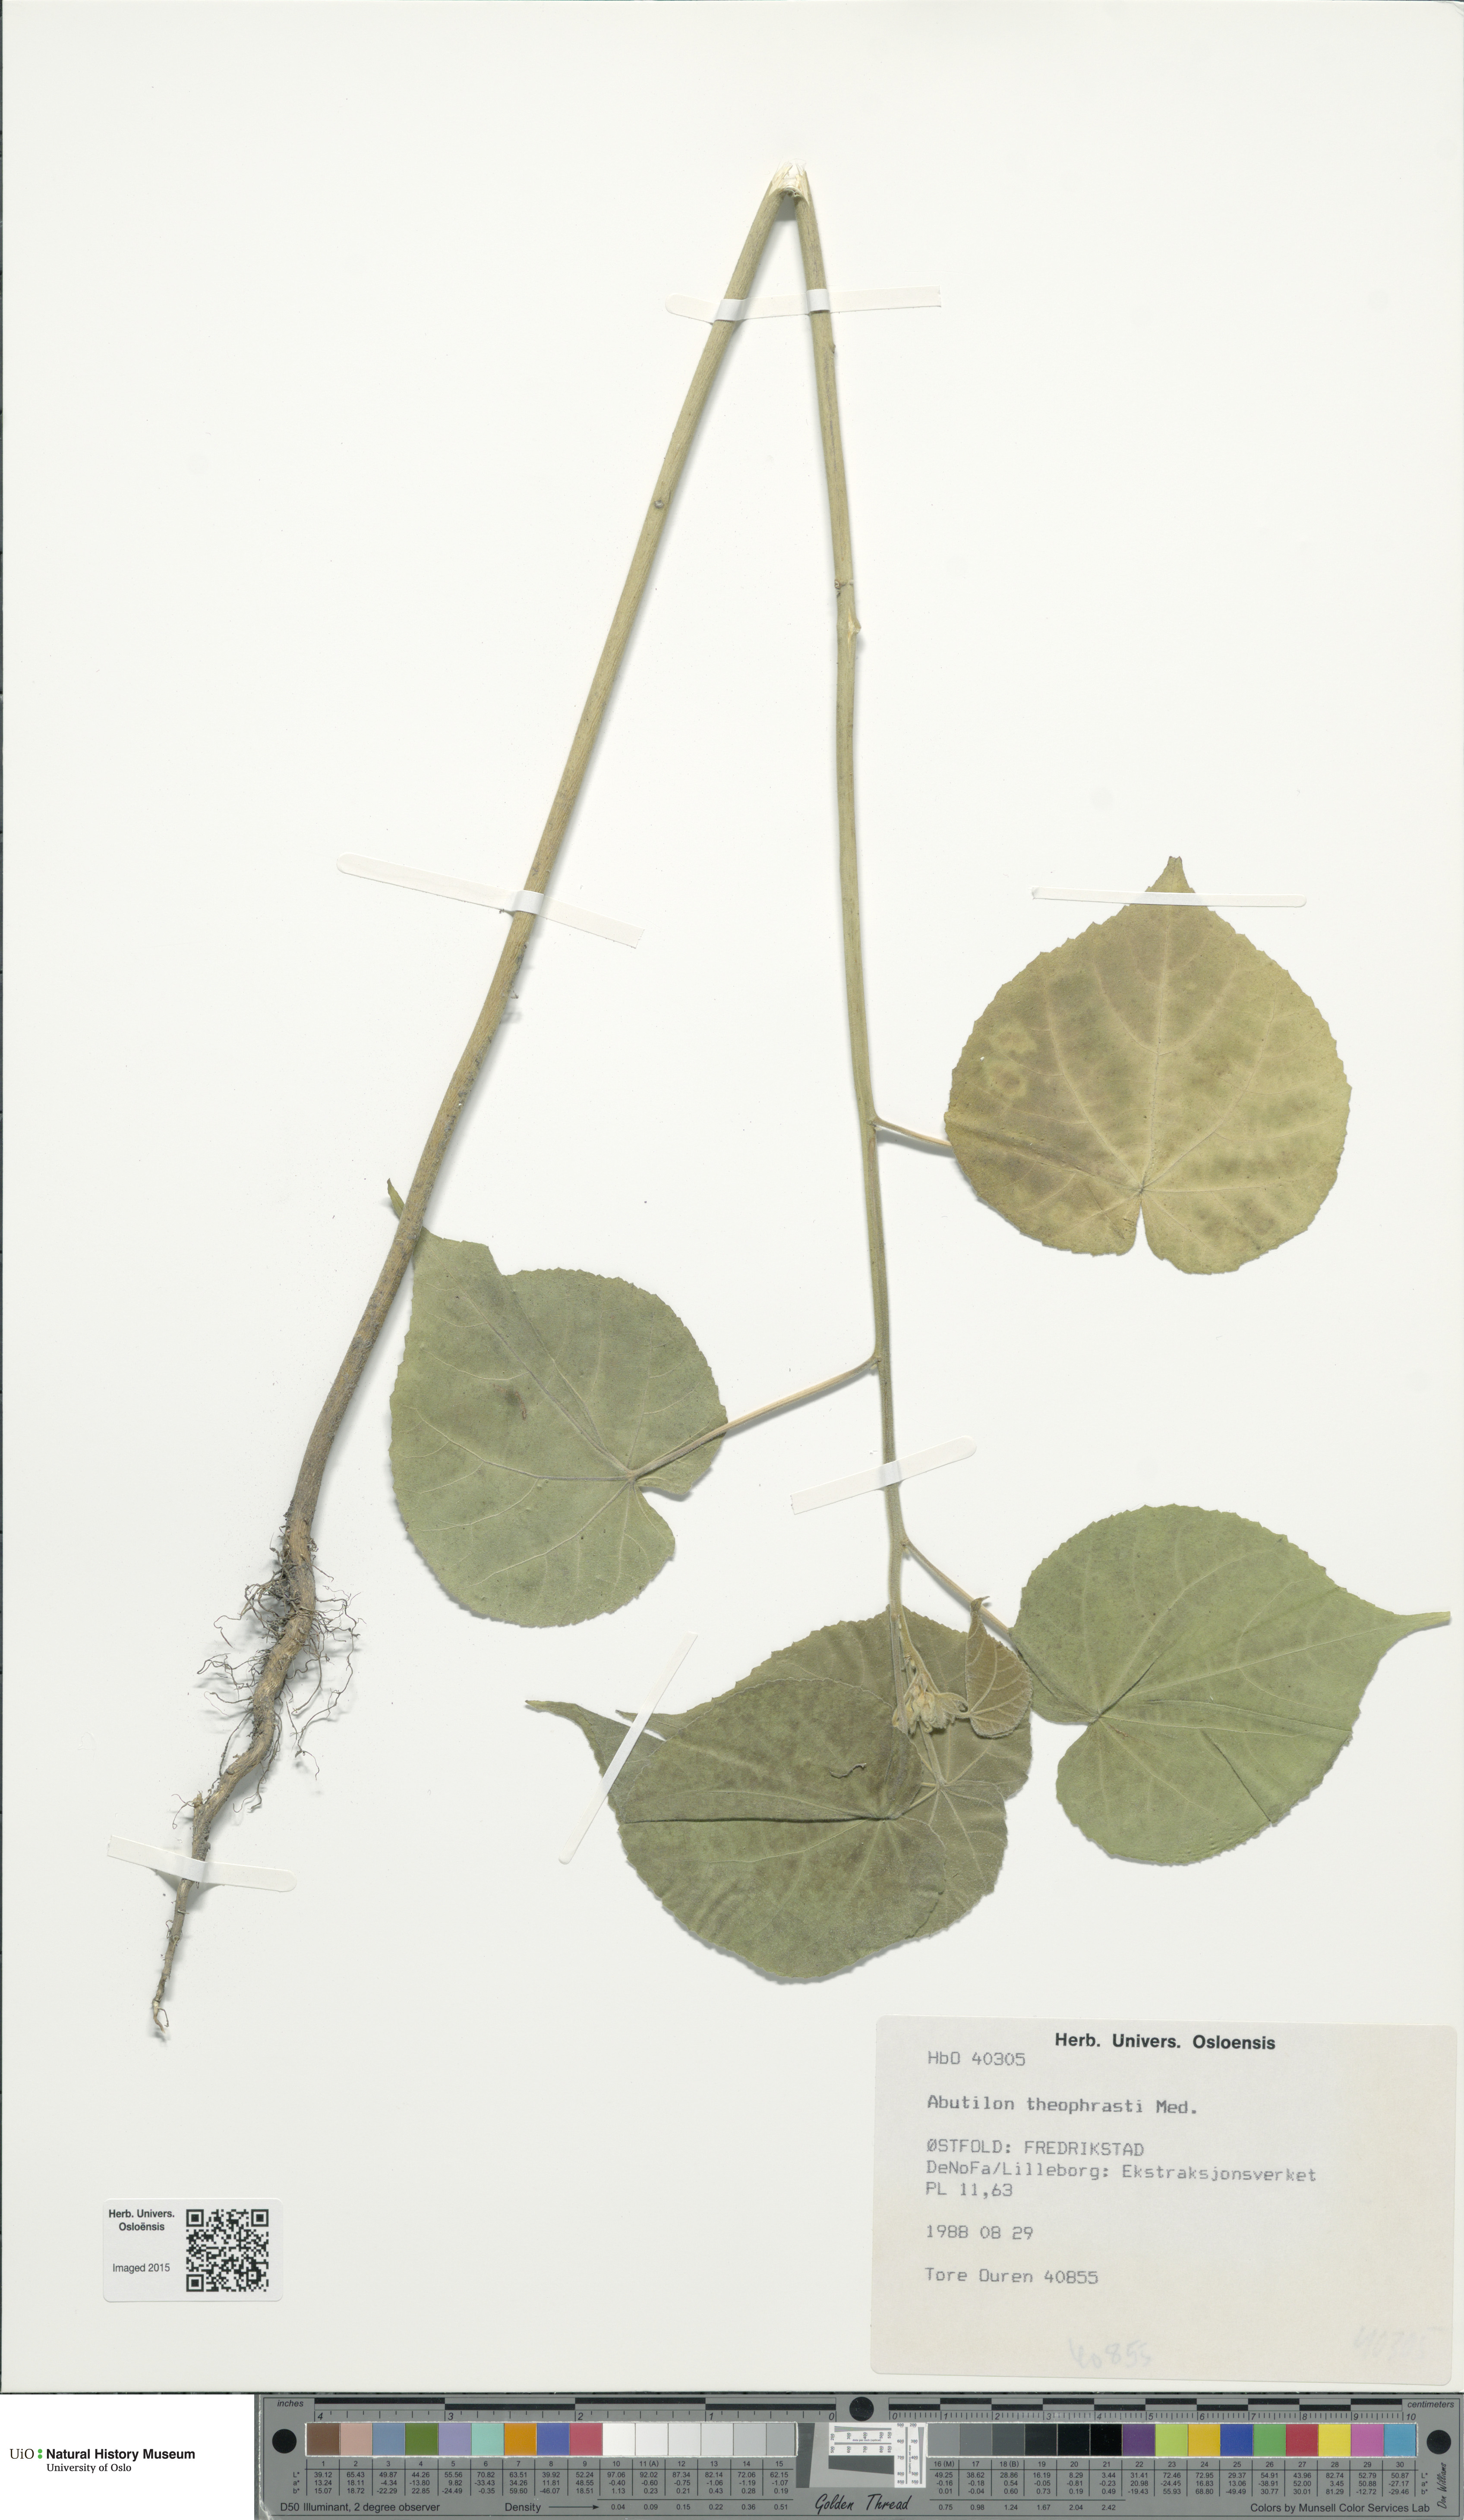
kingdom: Plantae
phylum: Tracheophyta
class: Magnoliopsida
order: Malvales
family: Malvaceae
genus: Abutilon
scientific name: Abutilon theophrasti
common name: Velvetleaf
